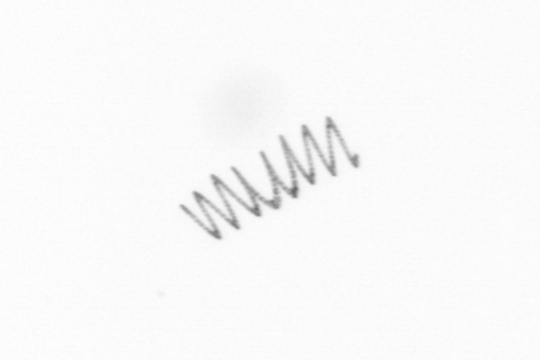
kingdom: Chromista
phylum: Ochrophyta
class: Bacillariophyceae
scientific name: Bacillariophyceae
